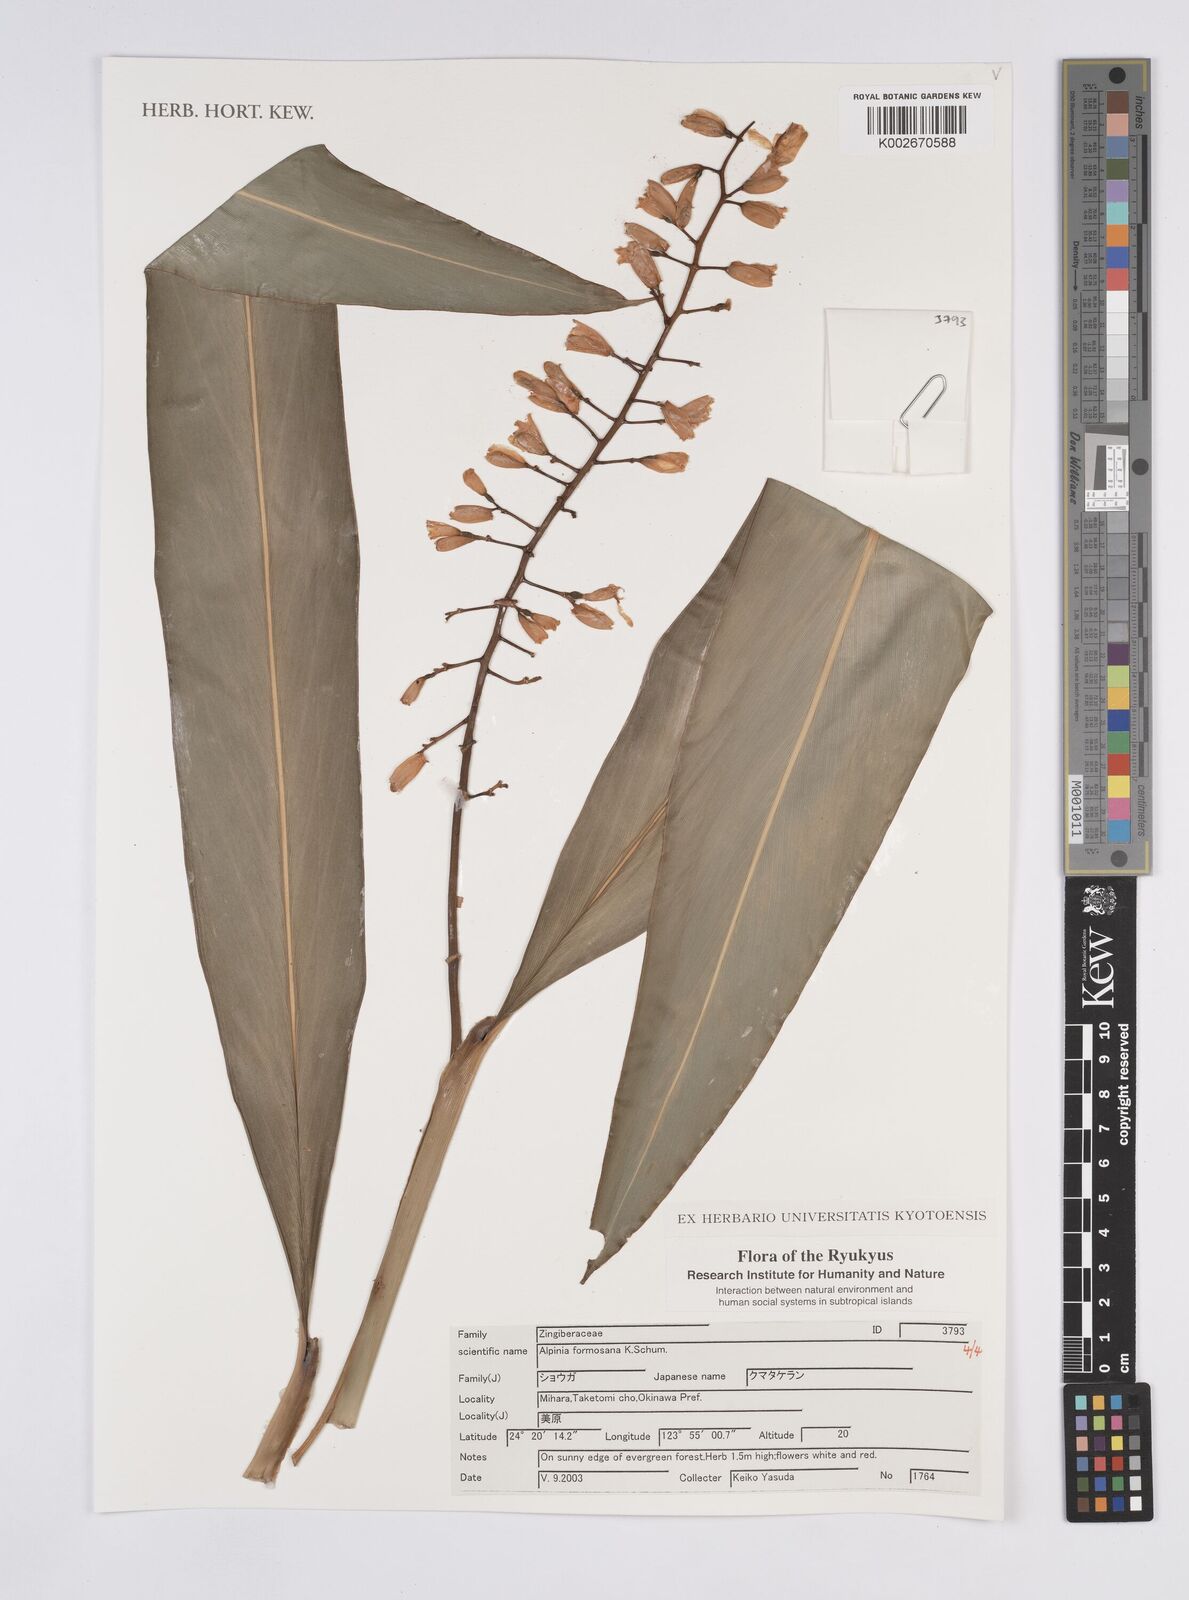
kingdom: Plantae
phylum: Tracheophyta
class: Liliopsida
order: Zingiberales
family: Zingiberaceae
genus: Alpinia
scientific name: Alpinia formosana
